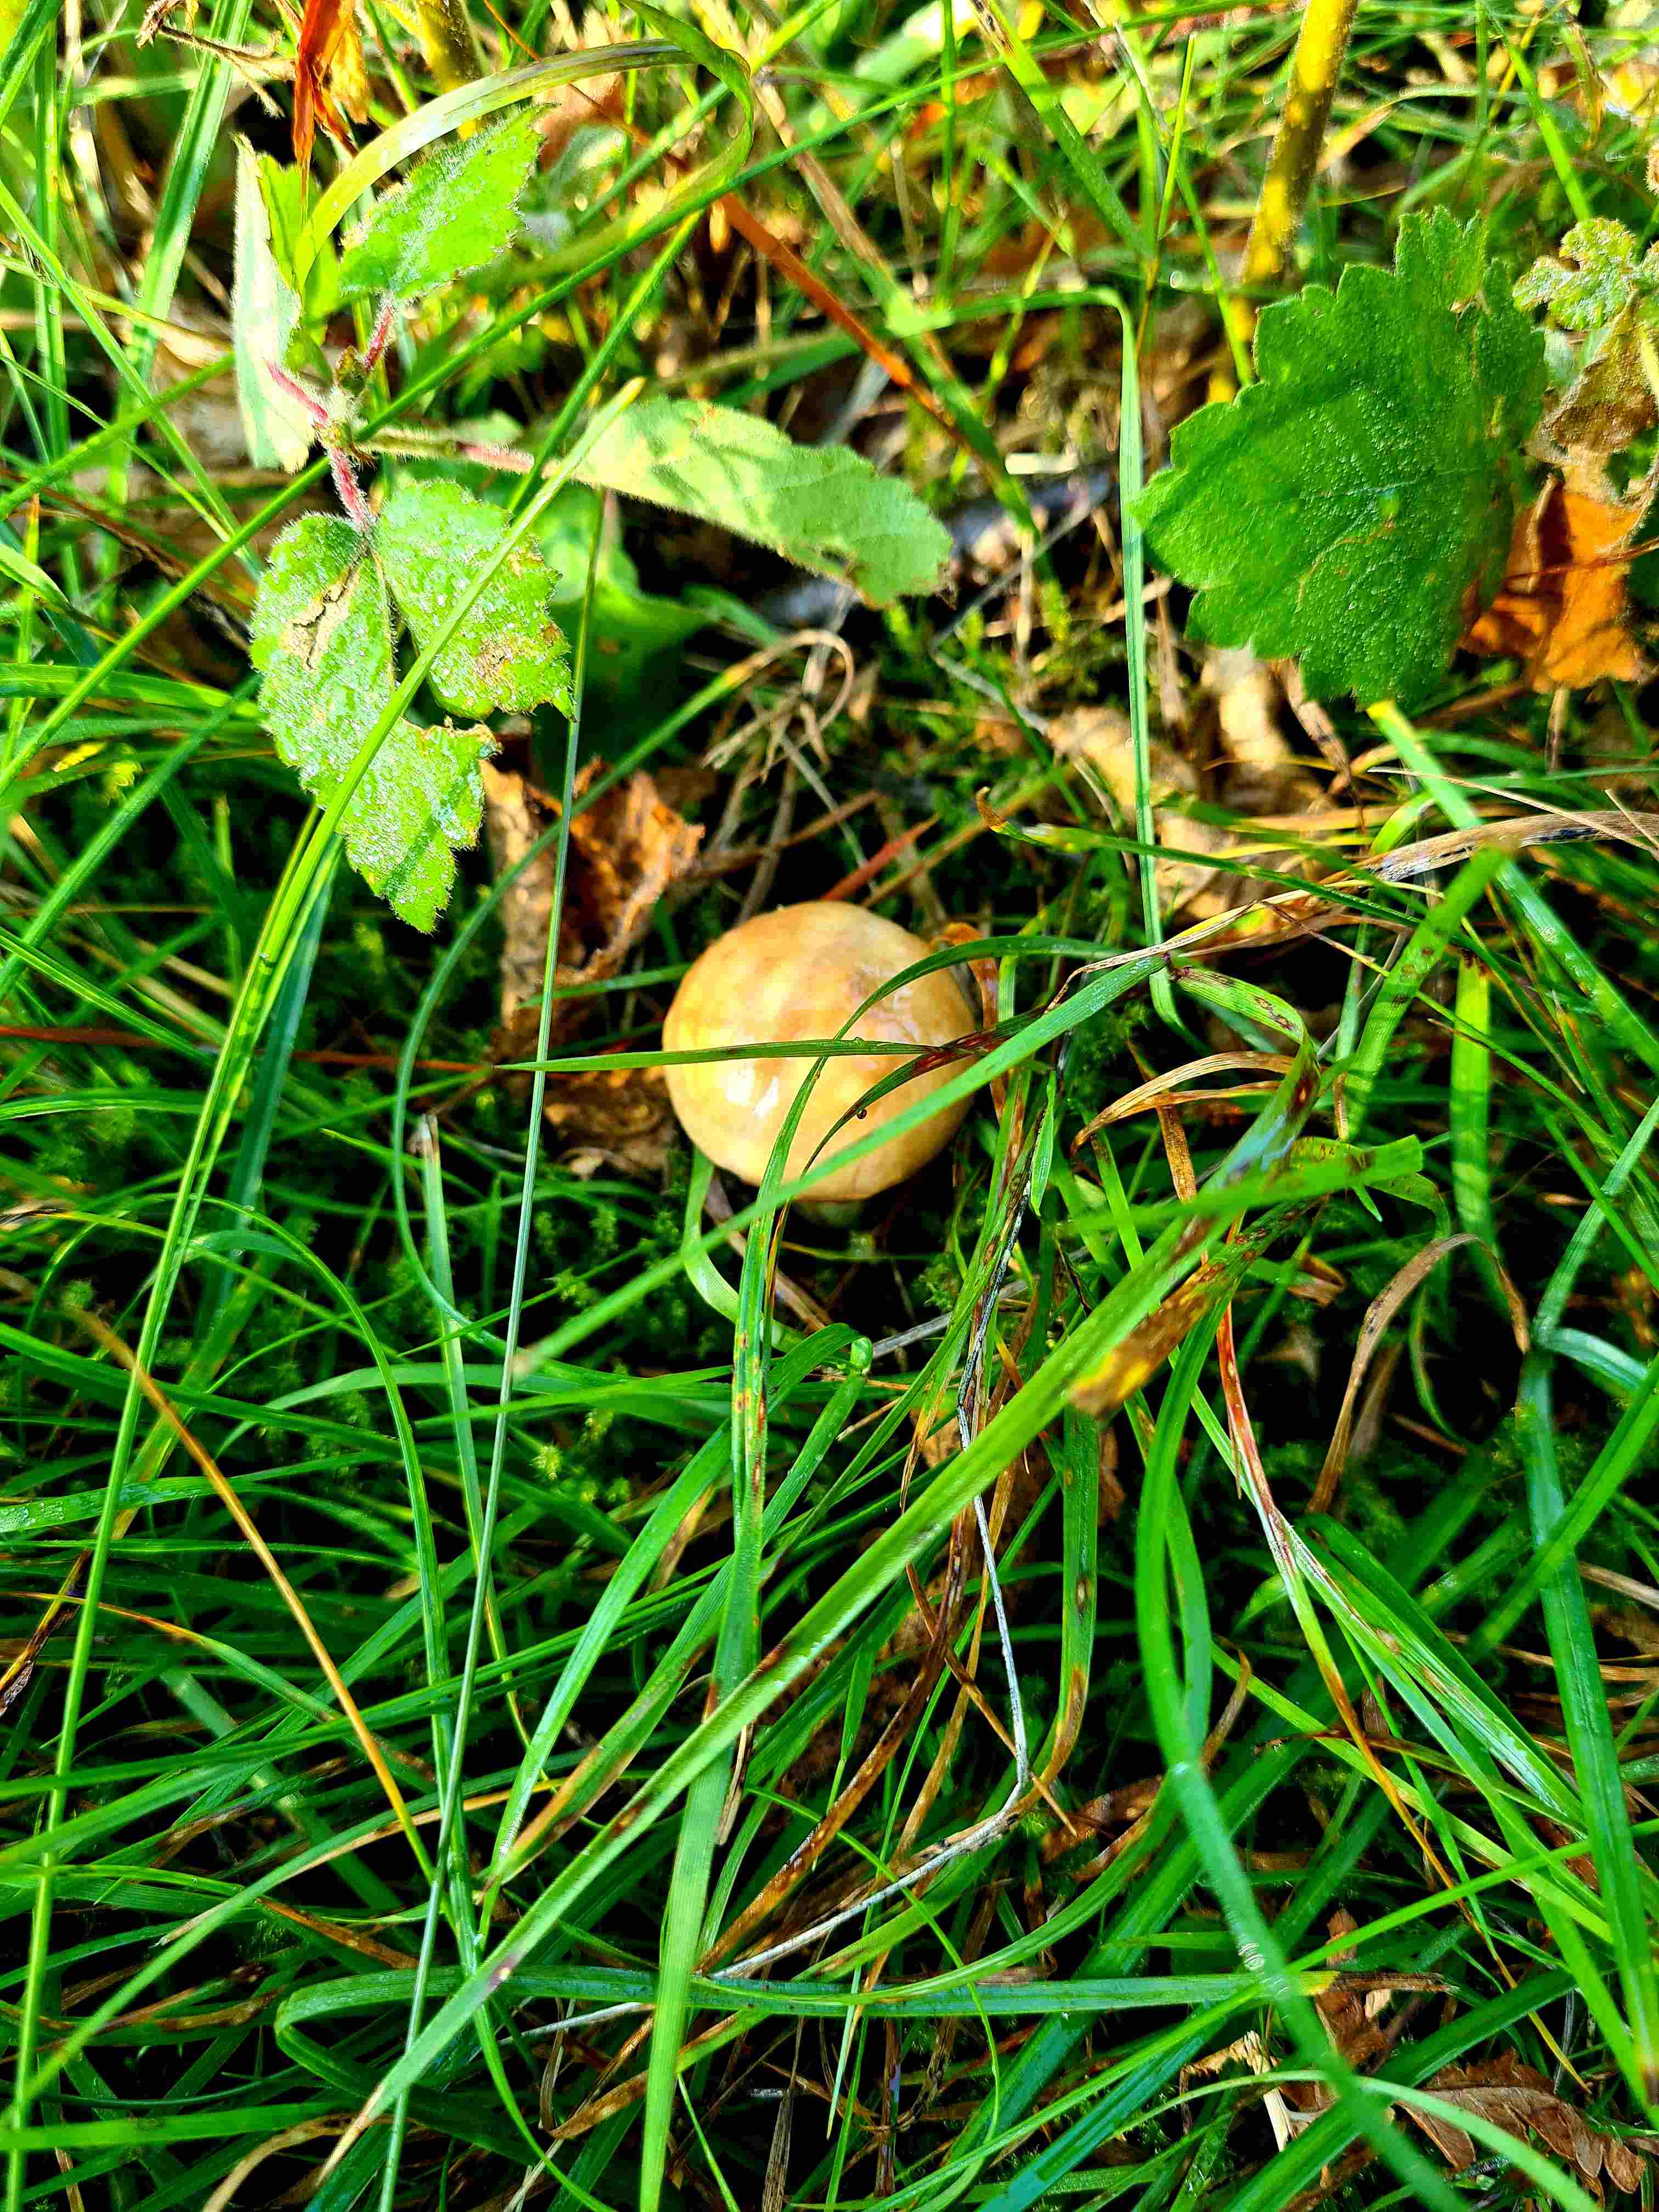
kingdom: Fungi
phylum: Basidiomycota
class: Agaricomycetes
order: Boletales
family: Suillaceae
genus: Suillus
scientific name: Suillus granulatus
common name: kornet slimrørhat
